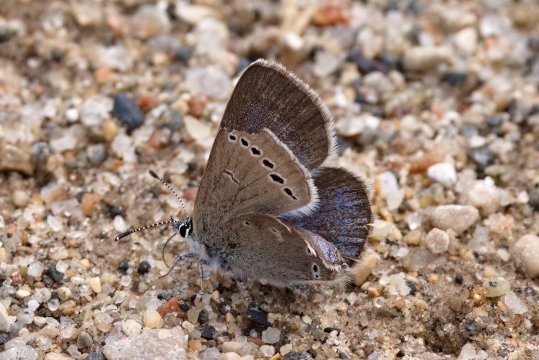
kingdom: Animalia
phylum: Arthropoda
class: Insecta
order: Lepidoptera
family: Lycaenidae
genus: Glaucopsyche
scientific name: Glaucopsyche lygdamus
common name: Silvery Blue
